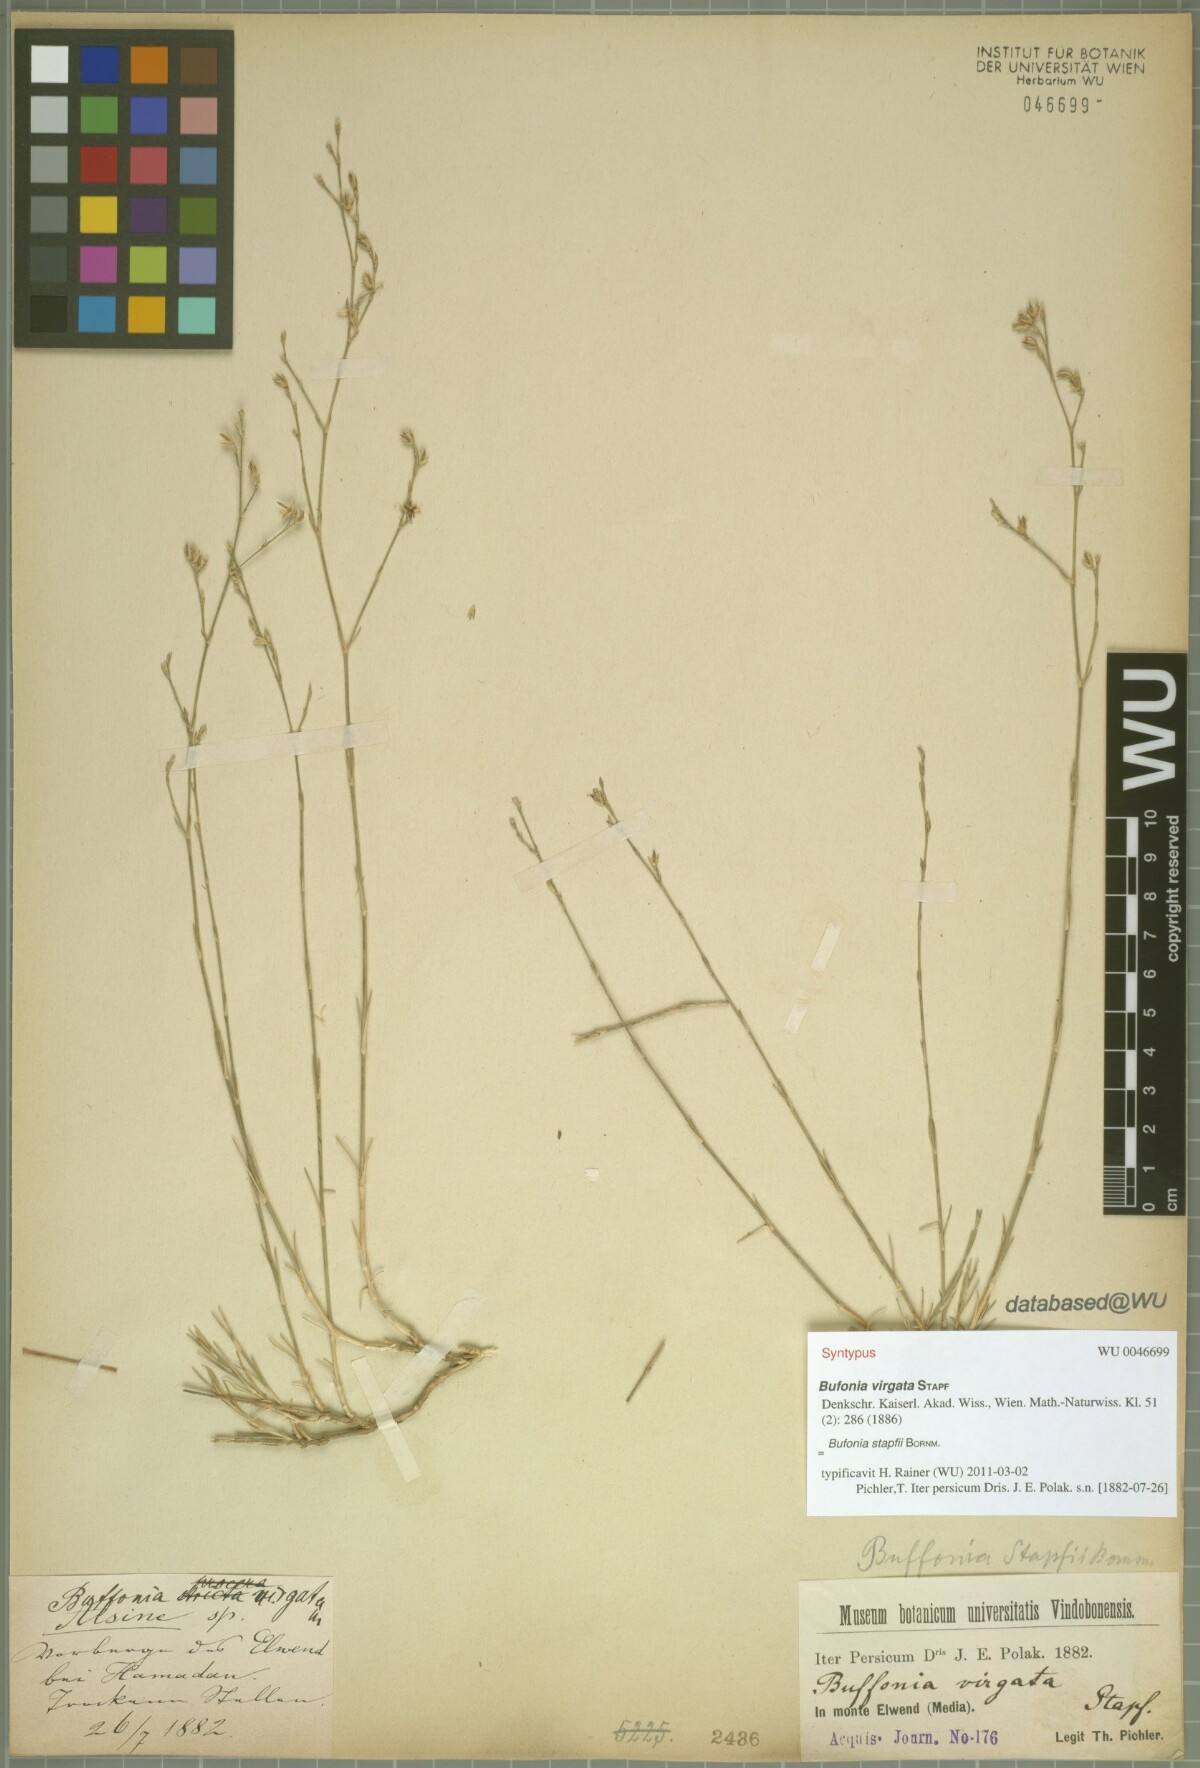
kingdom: Plantae
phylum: Tracheophyta
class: Magnoliopsida
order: Caryophyllales
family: Caryophyllaceae
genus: Bufonia
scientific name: Bufonia stapfii
